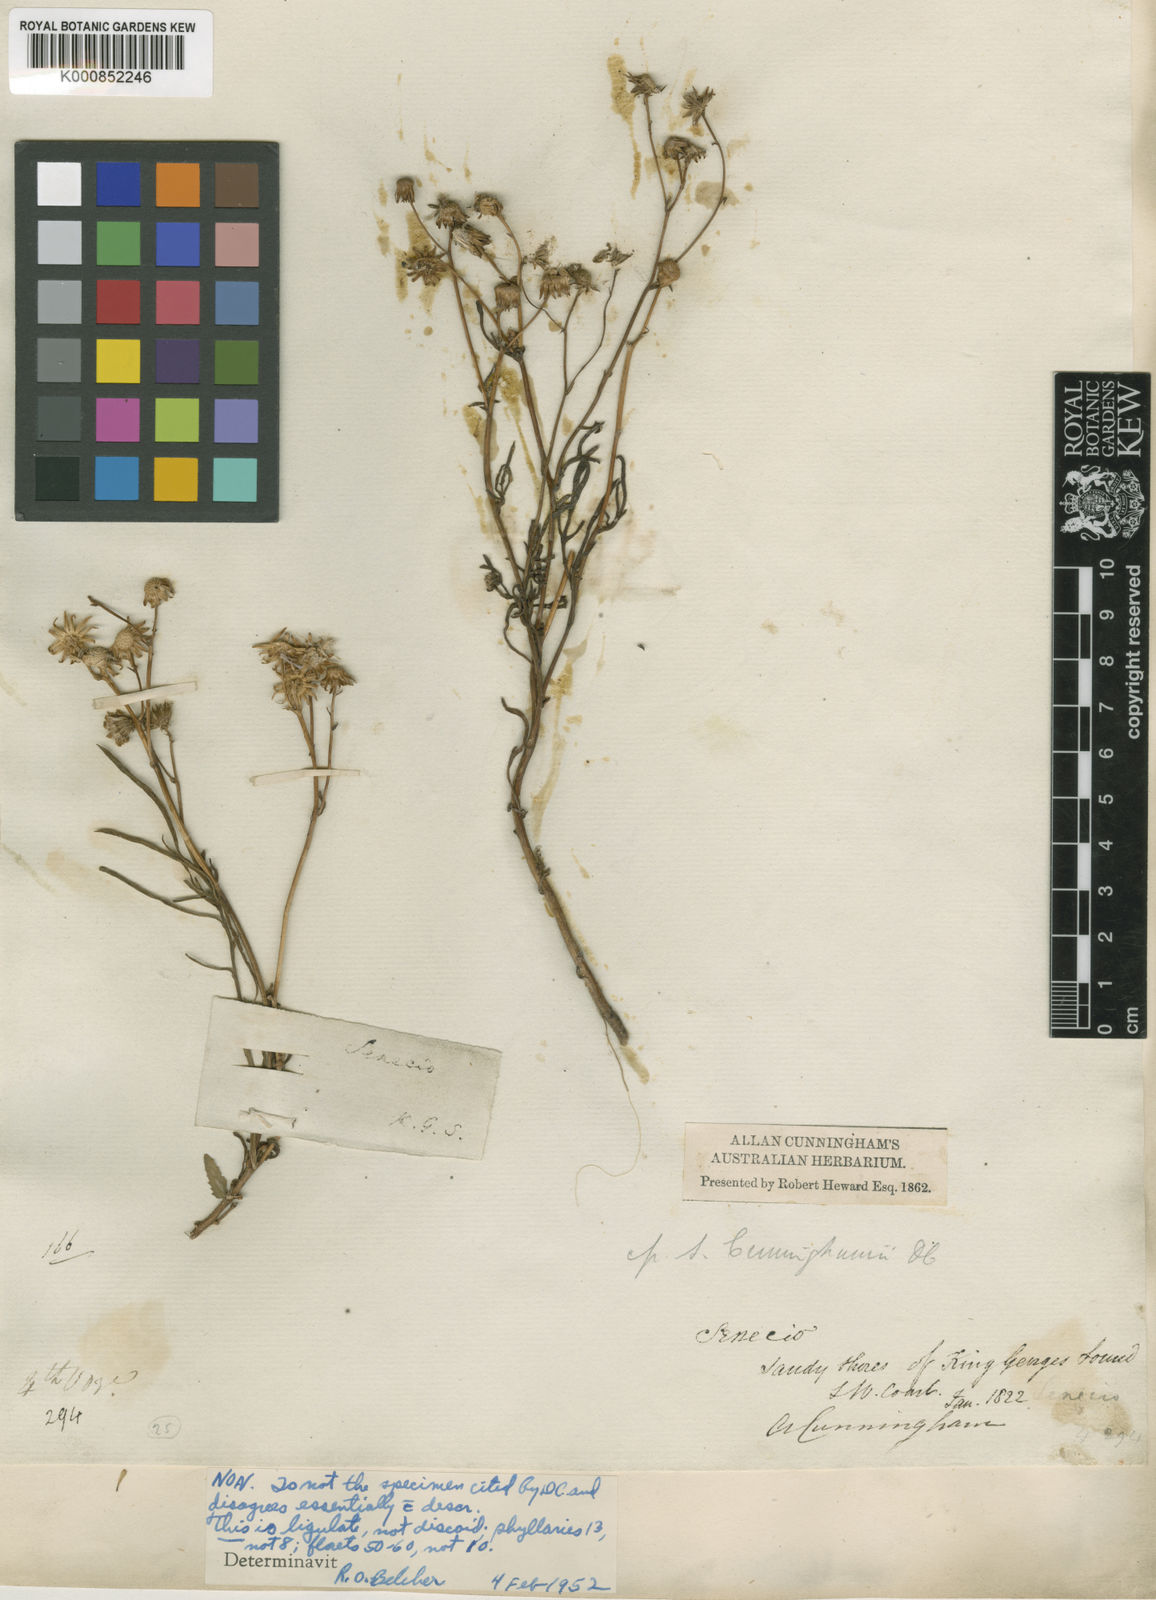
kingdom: Plantae
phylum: Tracheophyta
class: Magnoliopsida
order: Asterales
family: Asteraceae
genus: Senecio
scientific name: Senecio cunninghamii
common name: Bushy groundsel
